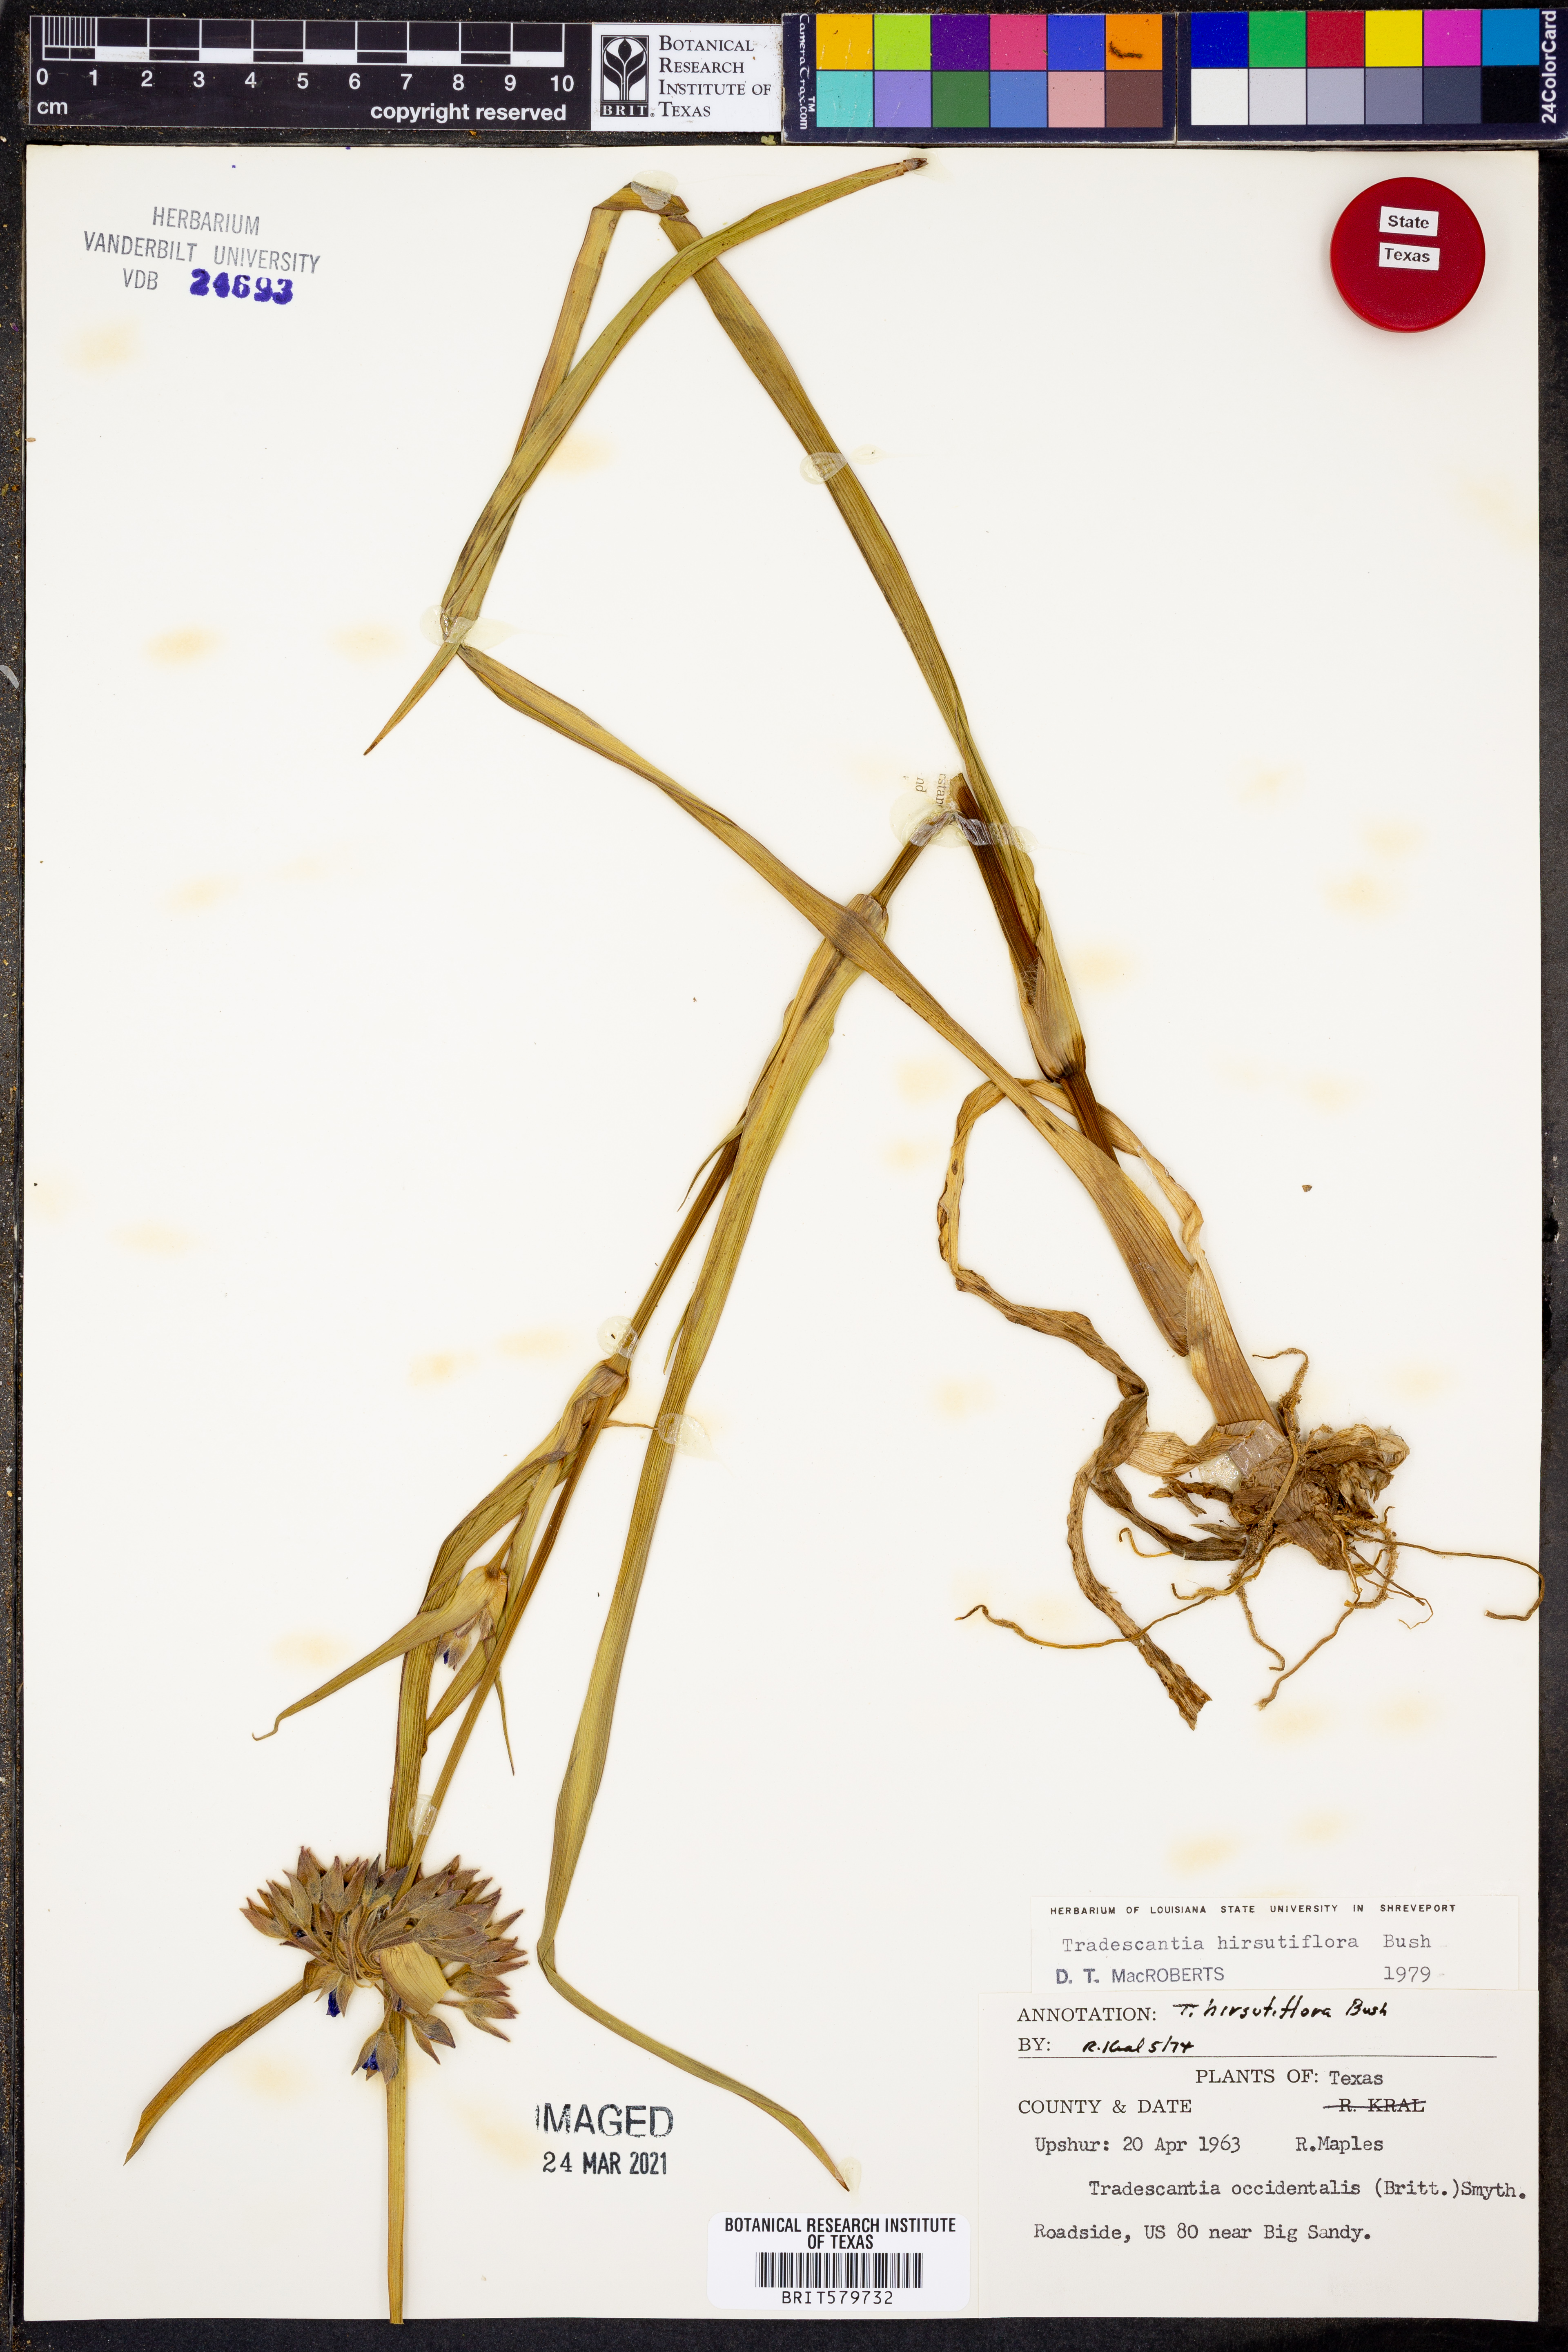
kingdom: Plantae
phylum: Tracheophyta
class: Liliopsida
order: Commelinales
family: Commelinaceae
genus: Tradescantia
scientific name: Tradescantia hirsutiflora
